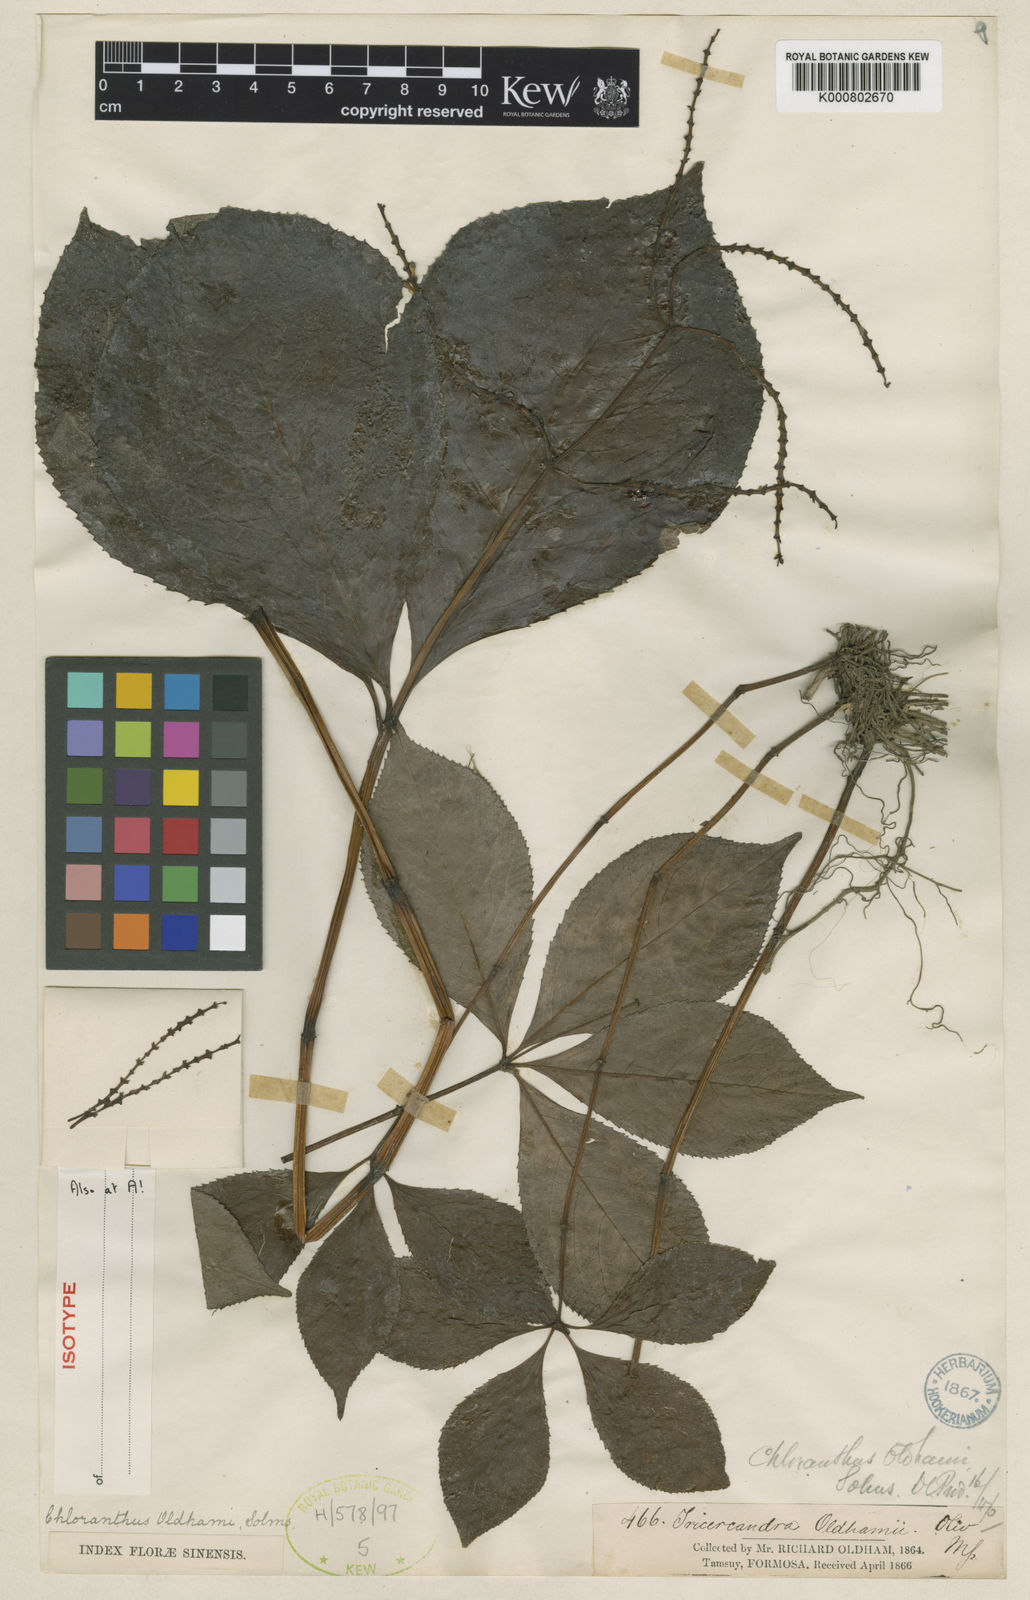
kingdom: Plantae
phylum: Tracheophyta
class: Magnoliopsida
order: Chloranthales
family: Chloranthaceae
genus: Chloranthus
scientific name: Chloranthus oldhamii
